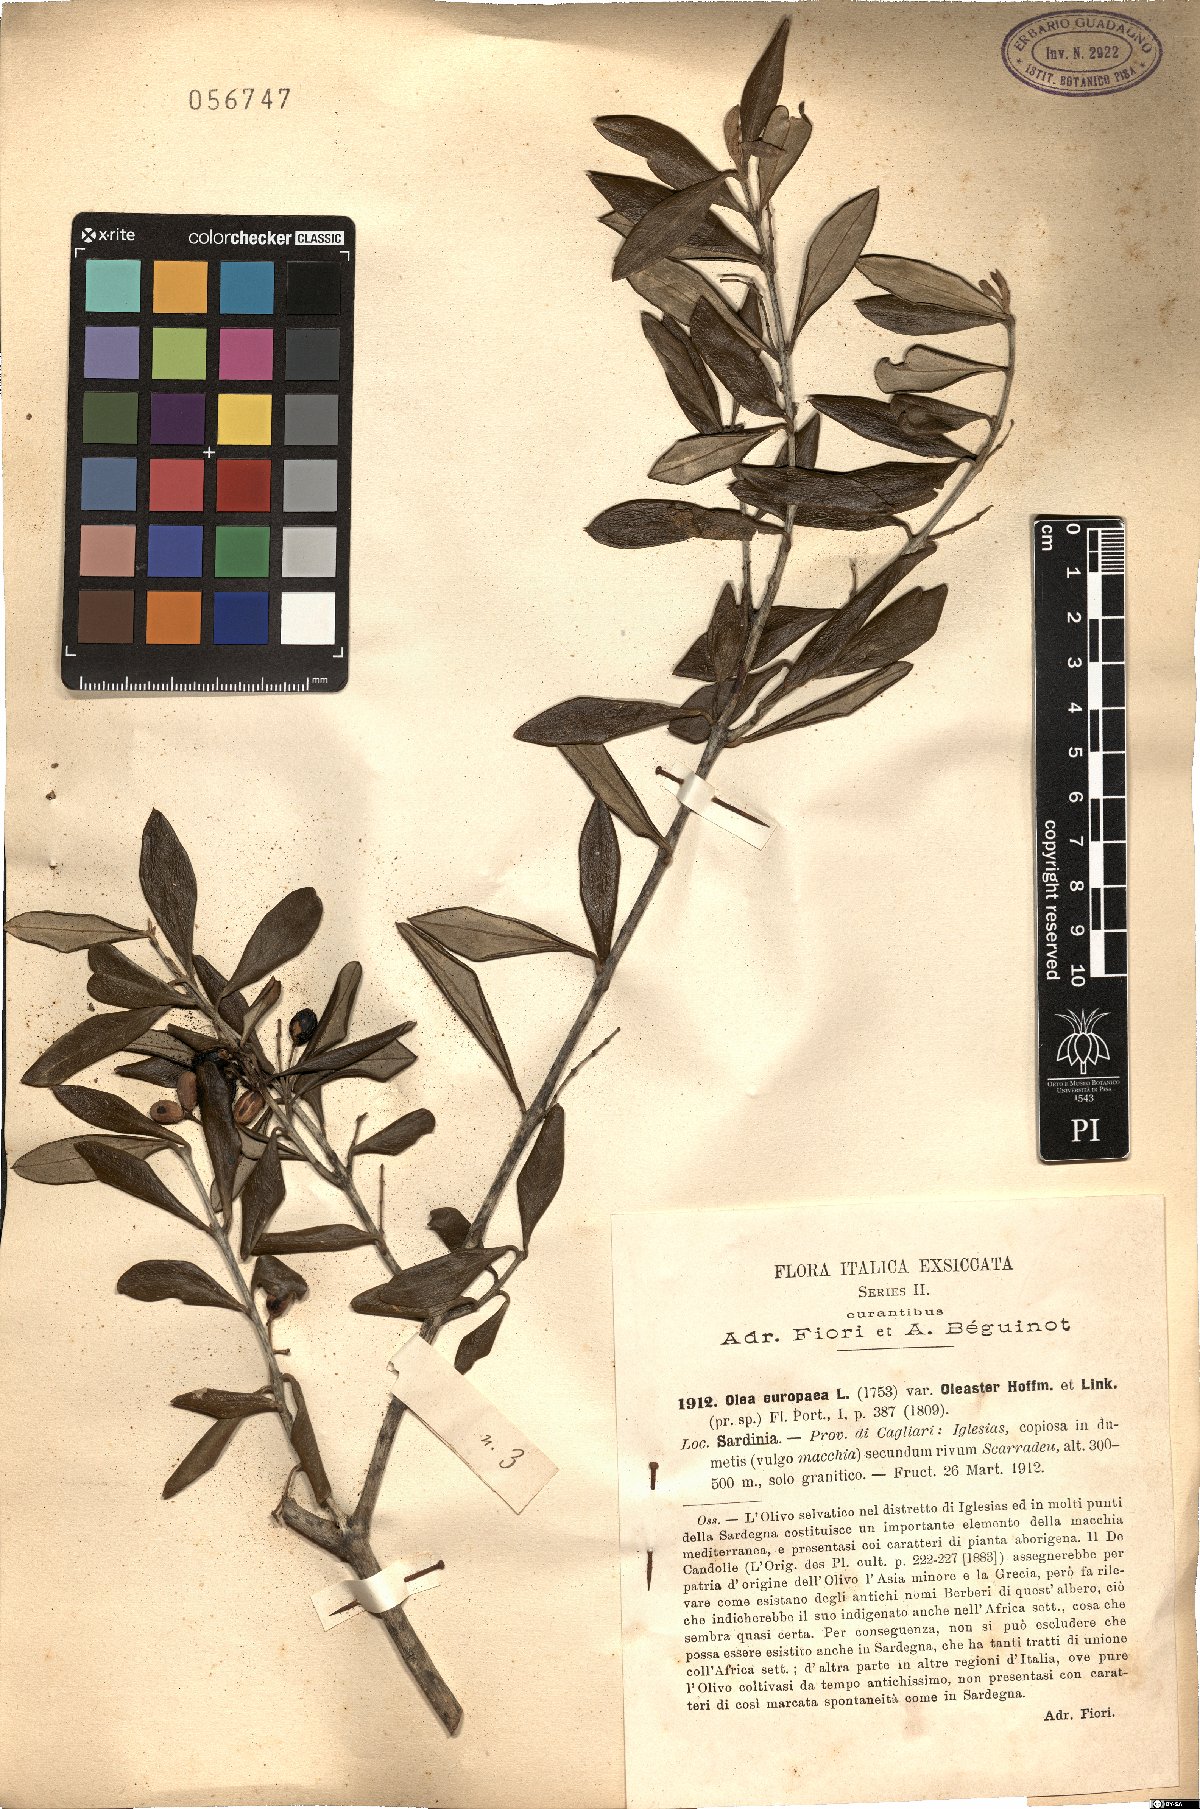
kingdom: Plantae
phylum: Tracheophyta
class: Magnoliopsida
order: Lamiales
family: Oleaceae
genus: Olea
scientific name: Olea europaea
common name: Olive
